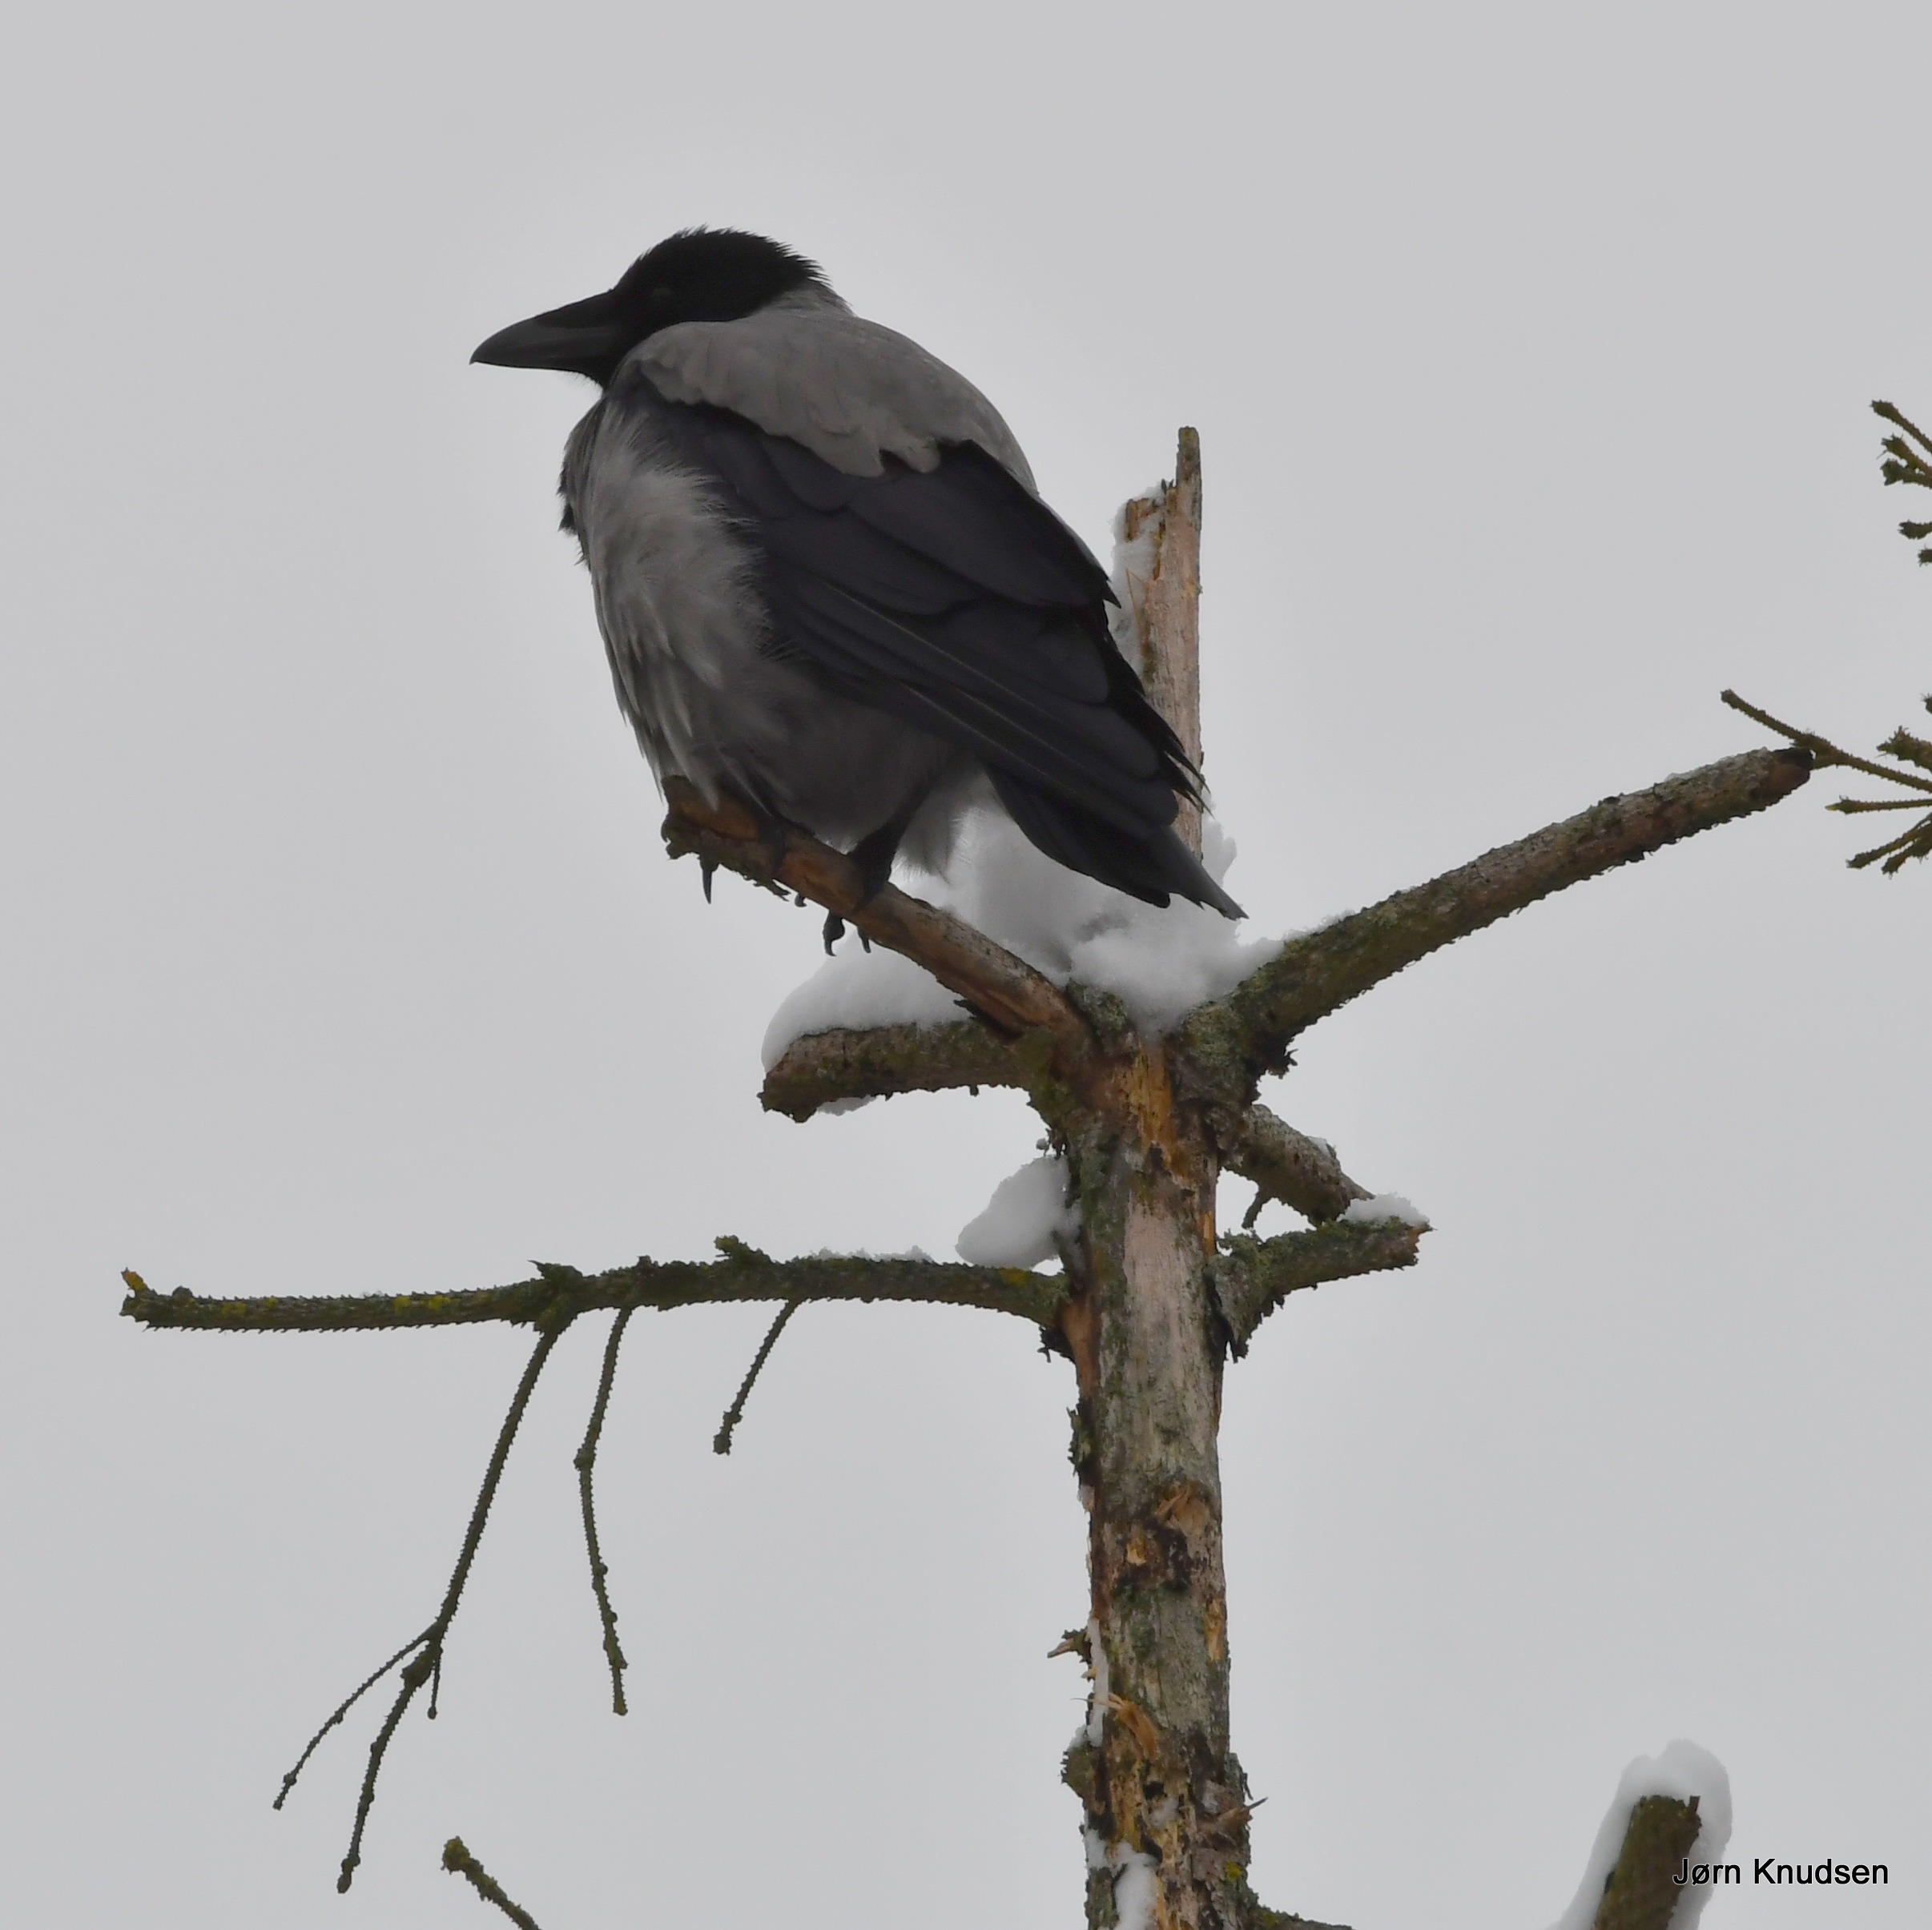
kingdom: Animalia
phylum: Chordata
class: Aves
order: Passeriformes
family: Corvidae
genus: Corvus
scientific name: Corvus cornix
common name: Gråkrage
